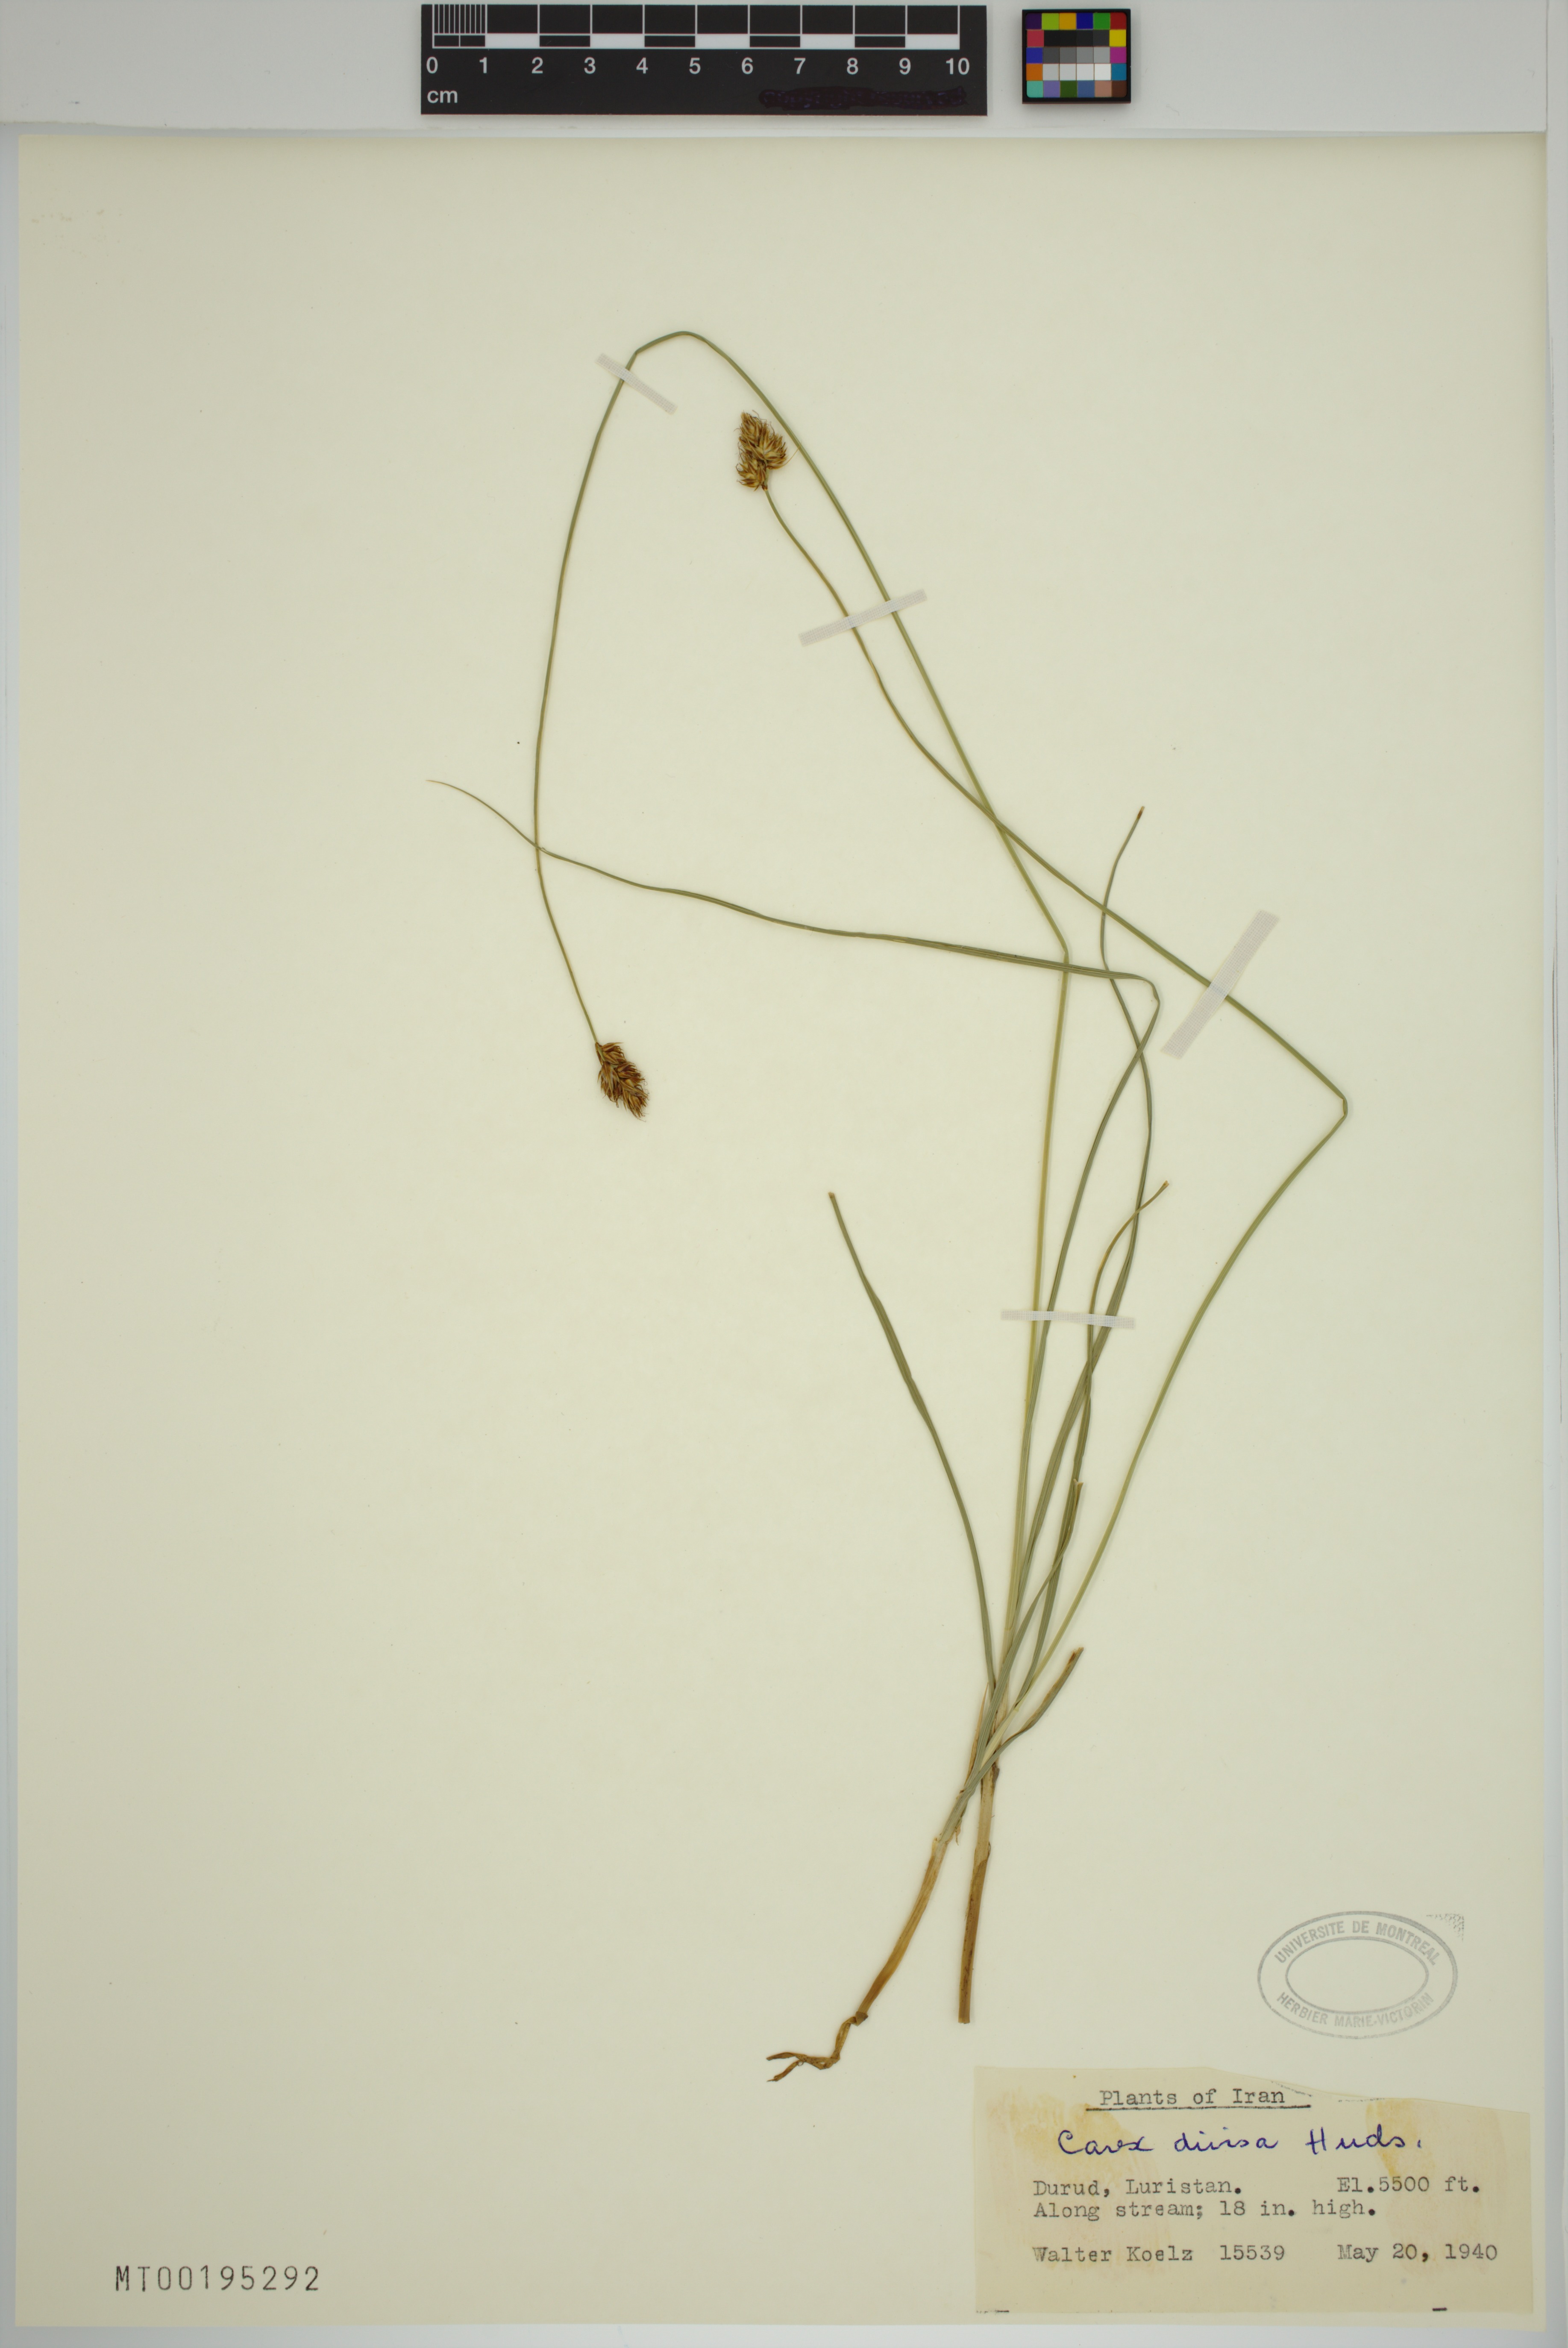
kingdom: Plantae
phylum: Tracheophyta
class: Liliopsida
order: Poales
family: Cyperaceae
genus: Carex
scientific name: Carex divisa
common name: Divided sedge
